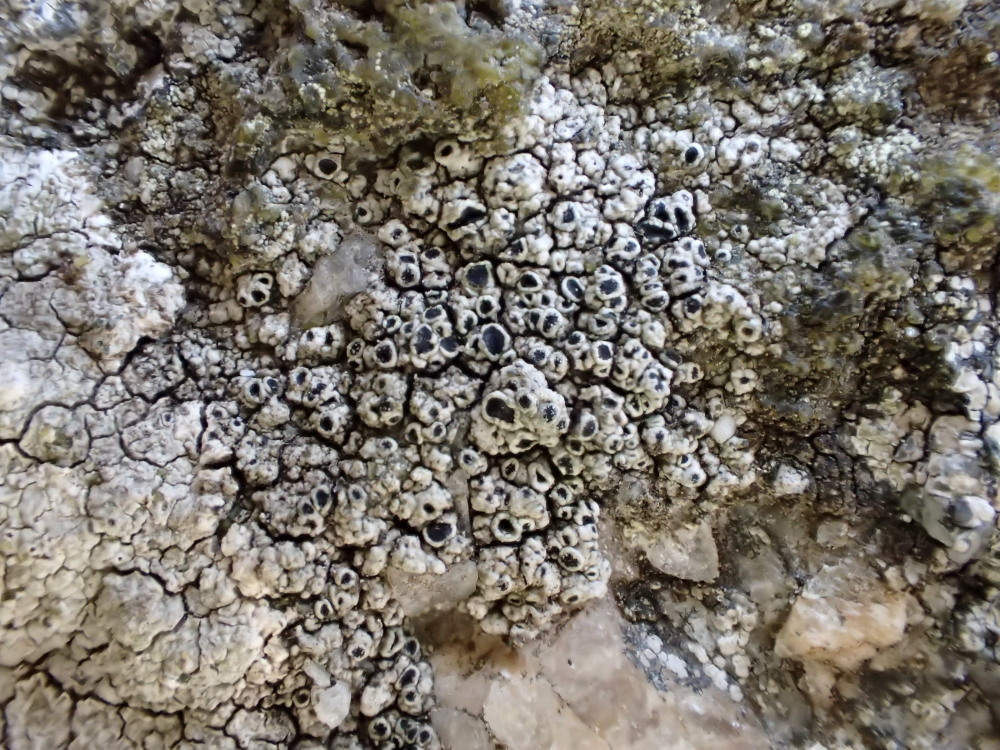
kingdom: Fungi
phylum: Ascomycota
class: Lecanoromycetes
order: Lecanorales
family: Tephromelataceae
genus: Tephromela
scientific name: Tephromela atra
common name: sortfrugtet kantskivelav
